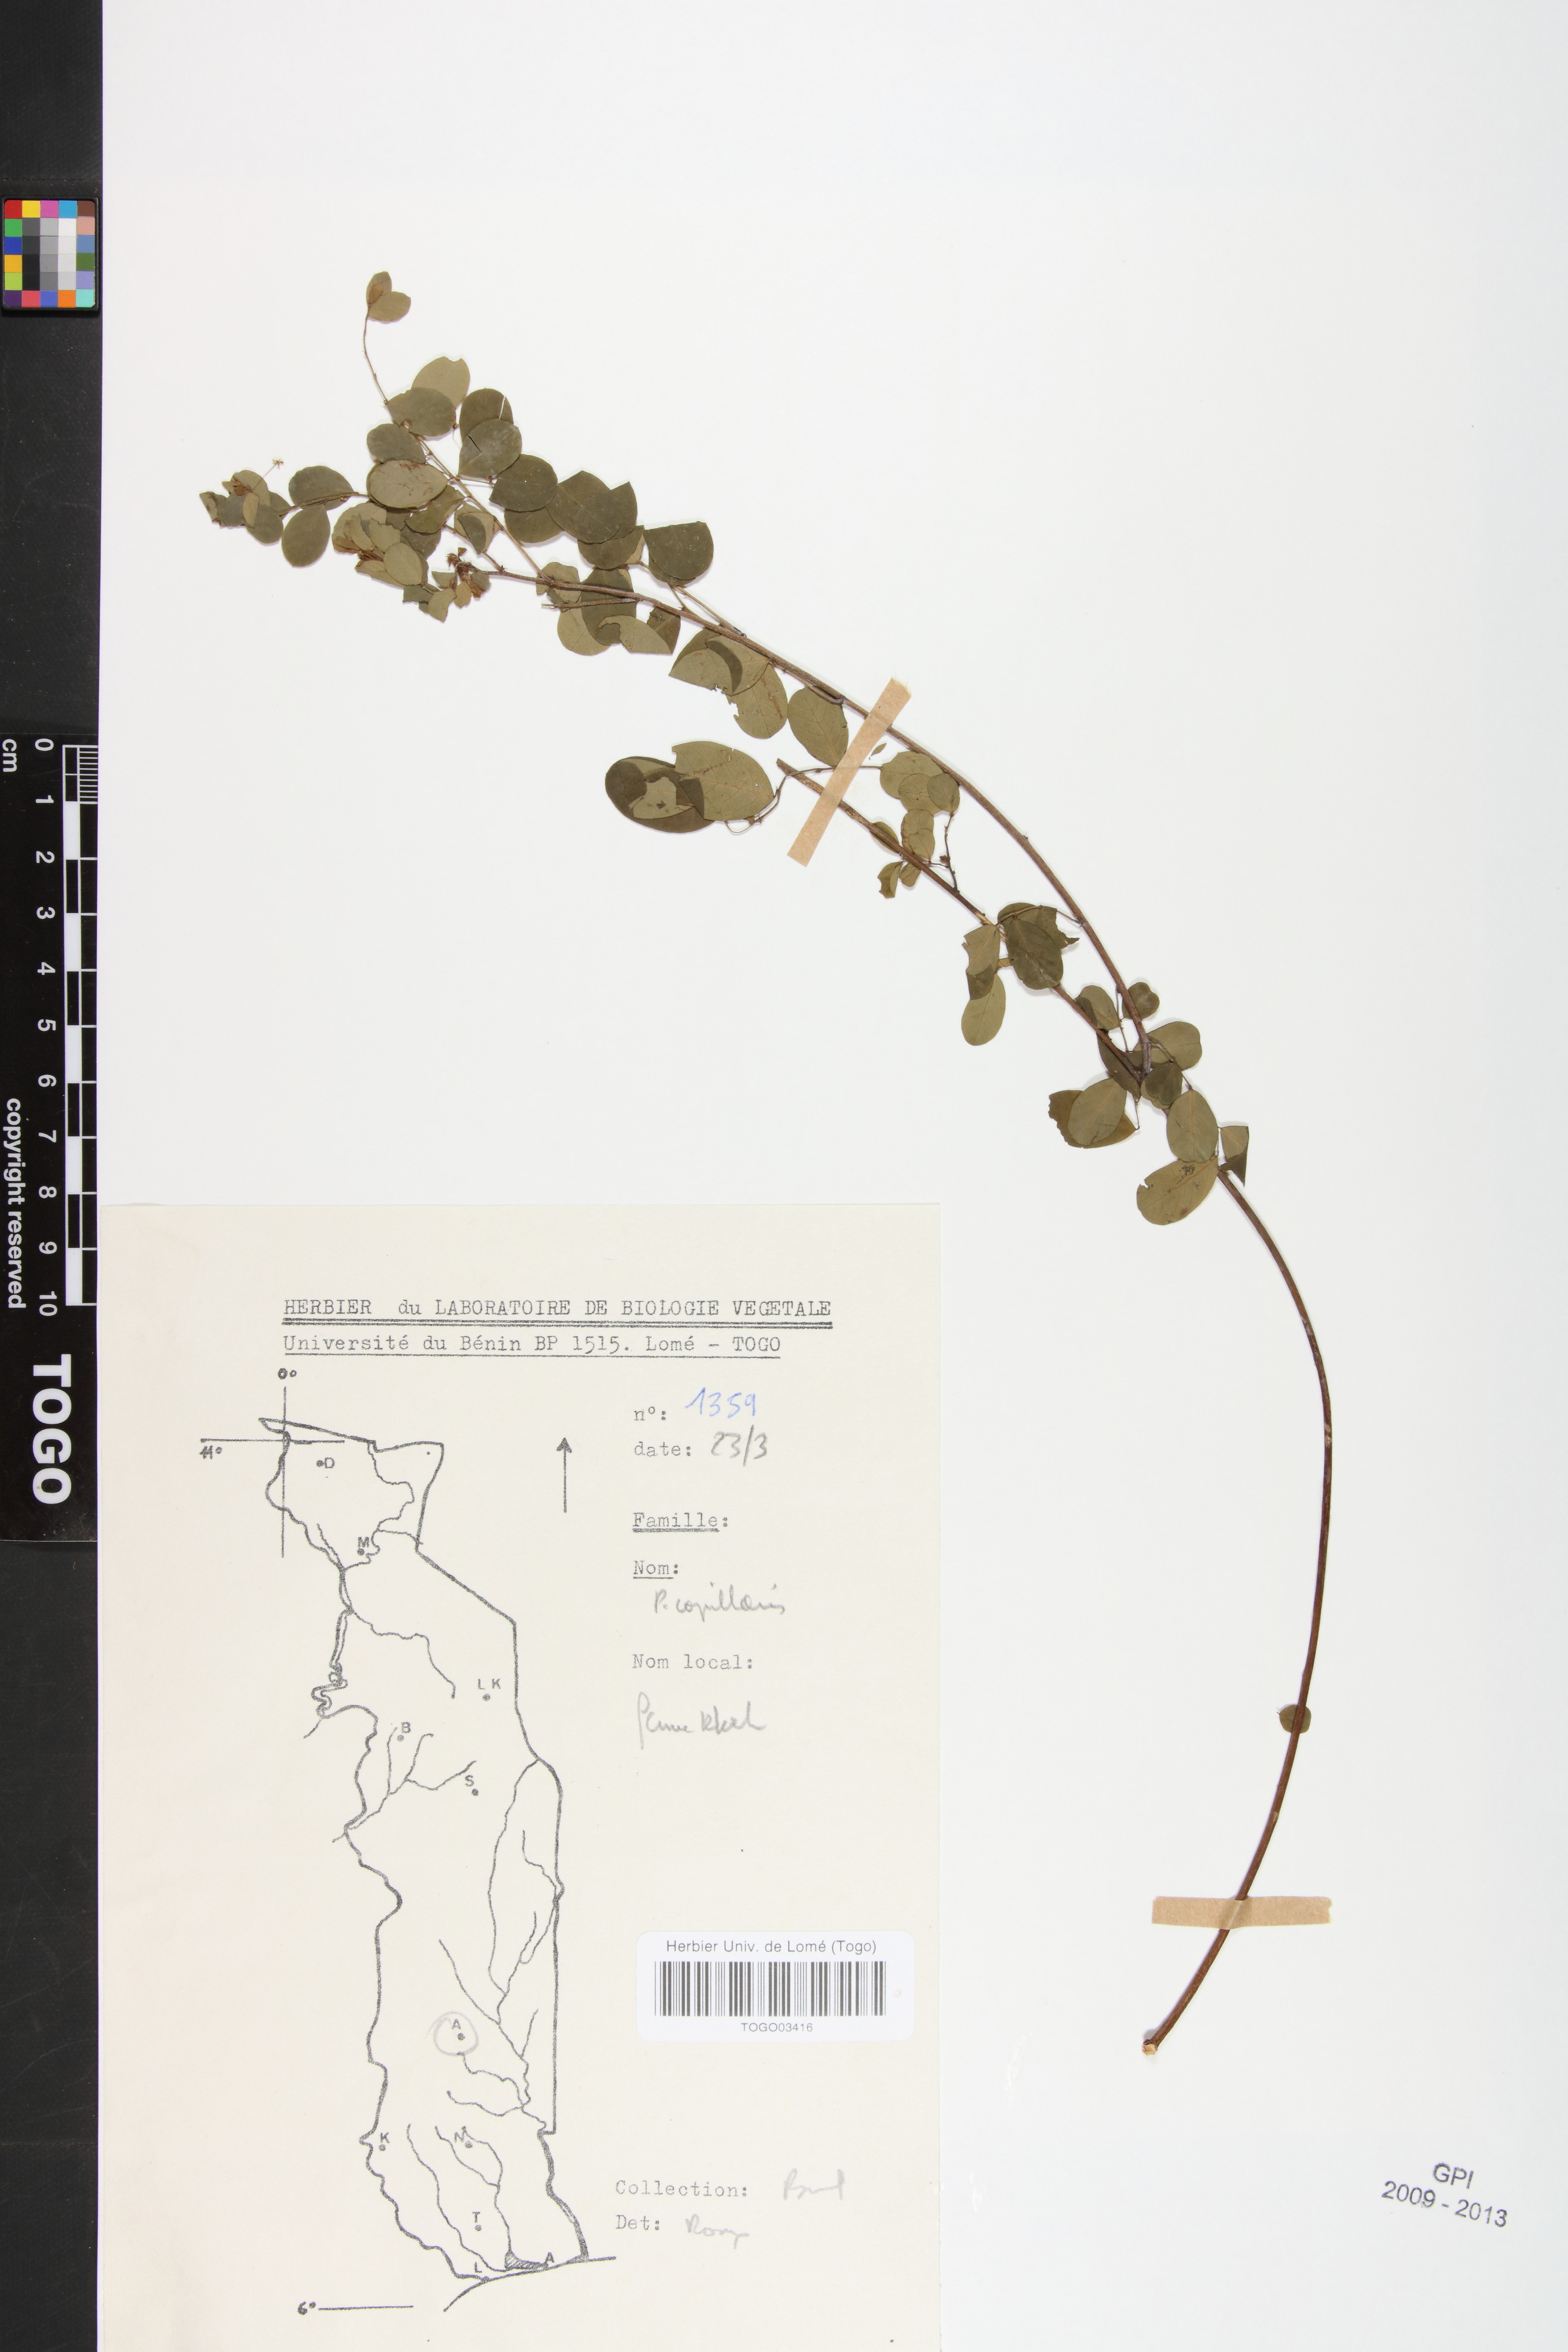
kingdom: Plantae
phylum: Tracheophyta
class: Magnoliopsida
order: Malpighiales
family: Phyllanthaceae
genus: Phyllanthus
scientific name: Phyllanthus nummulariifolius
